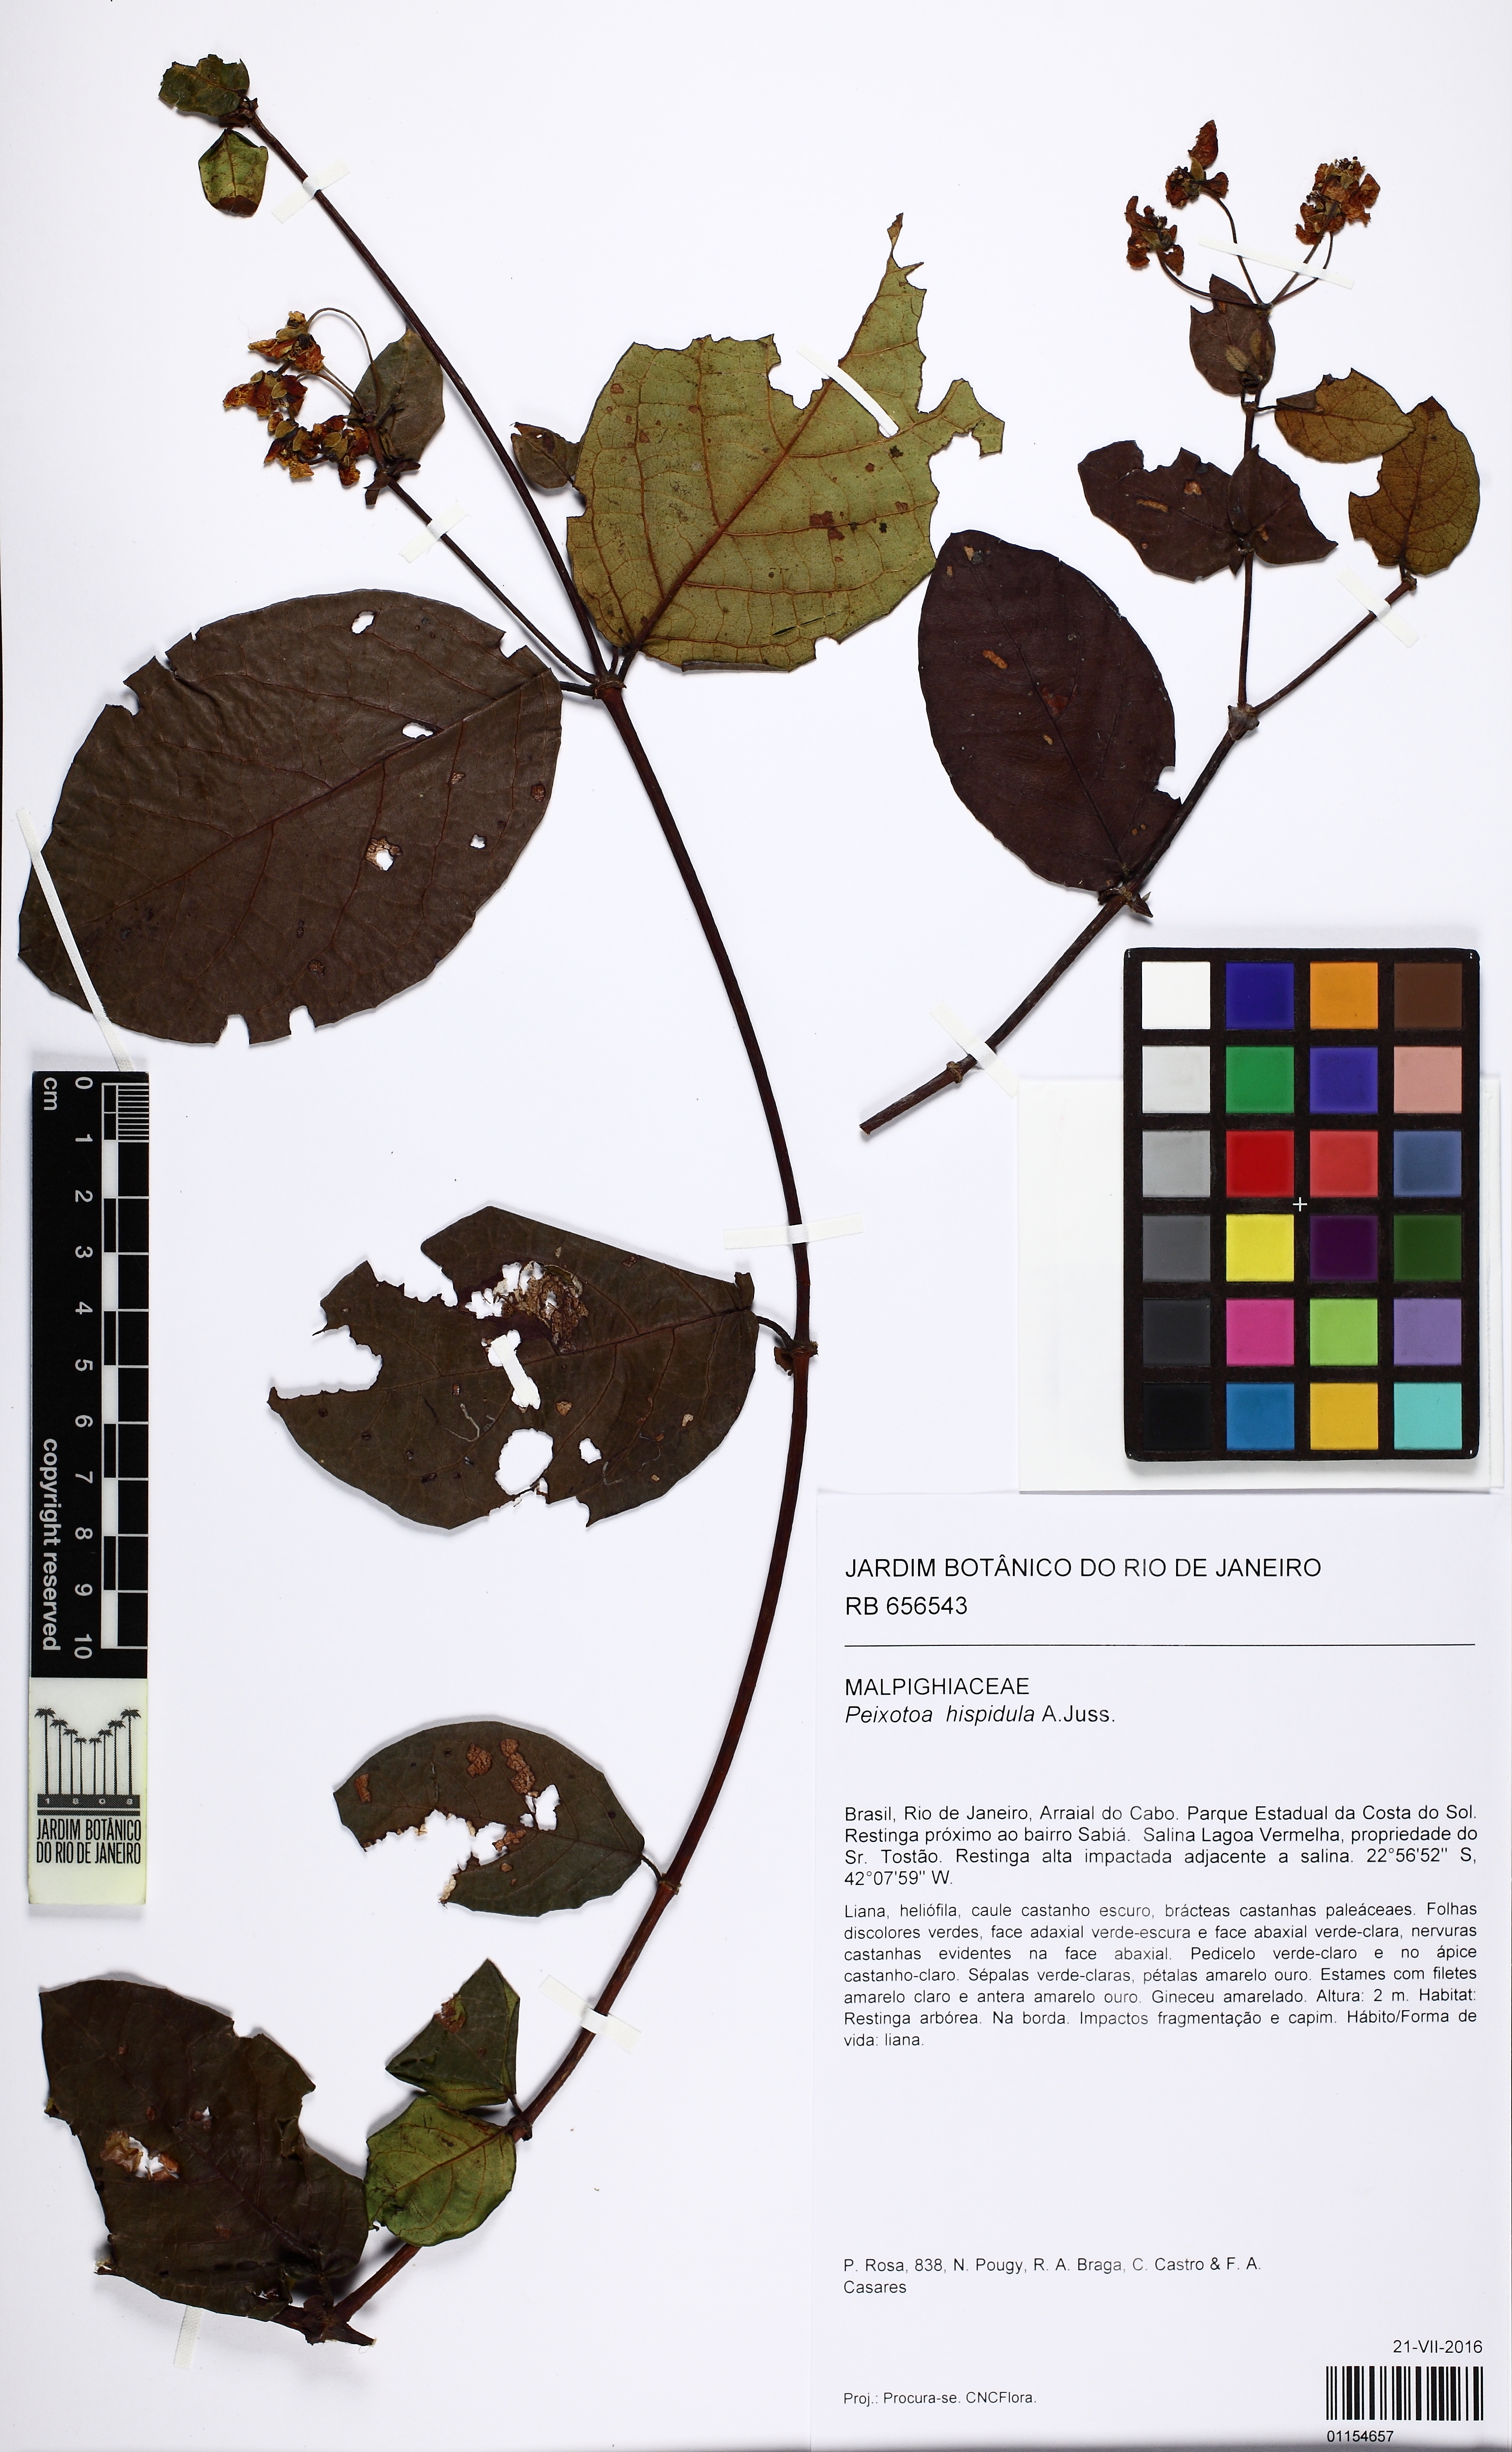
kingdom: Plantae
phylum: Tracheophyta
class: Magnoliopsida
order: Malpighiales
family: Malpighiaceae
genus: Peixotoa
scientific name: Peixotoa hispidula
